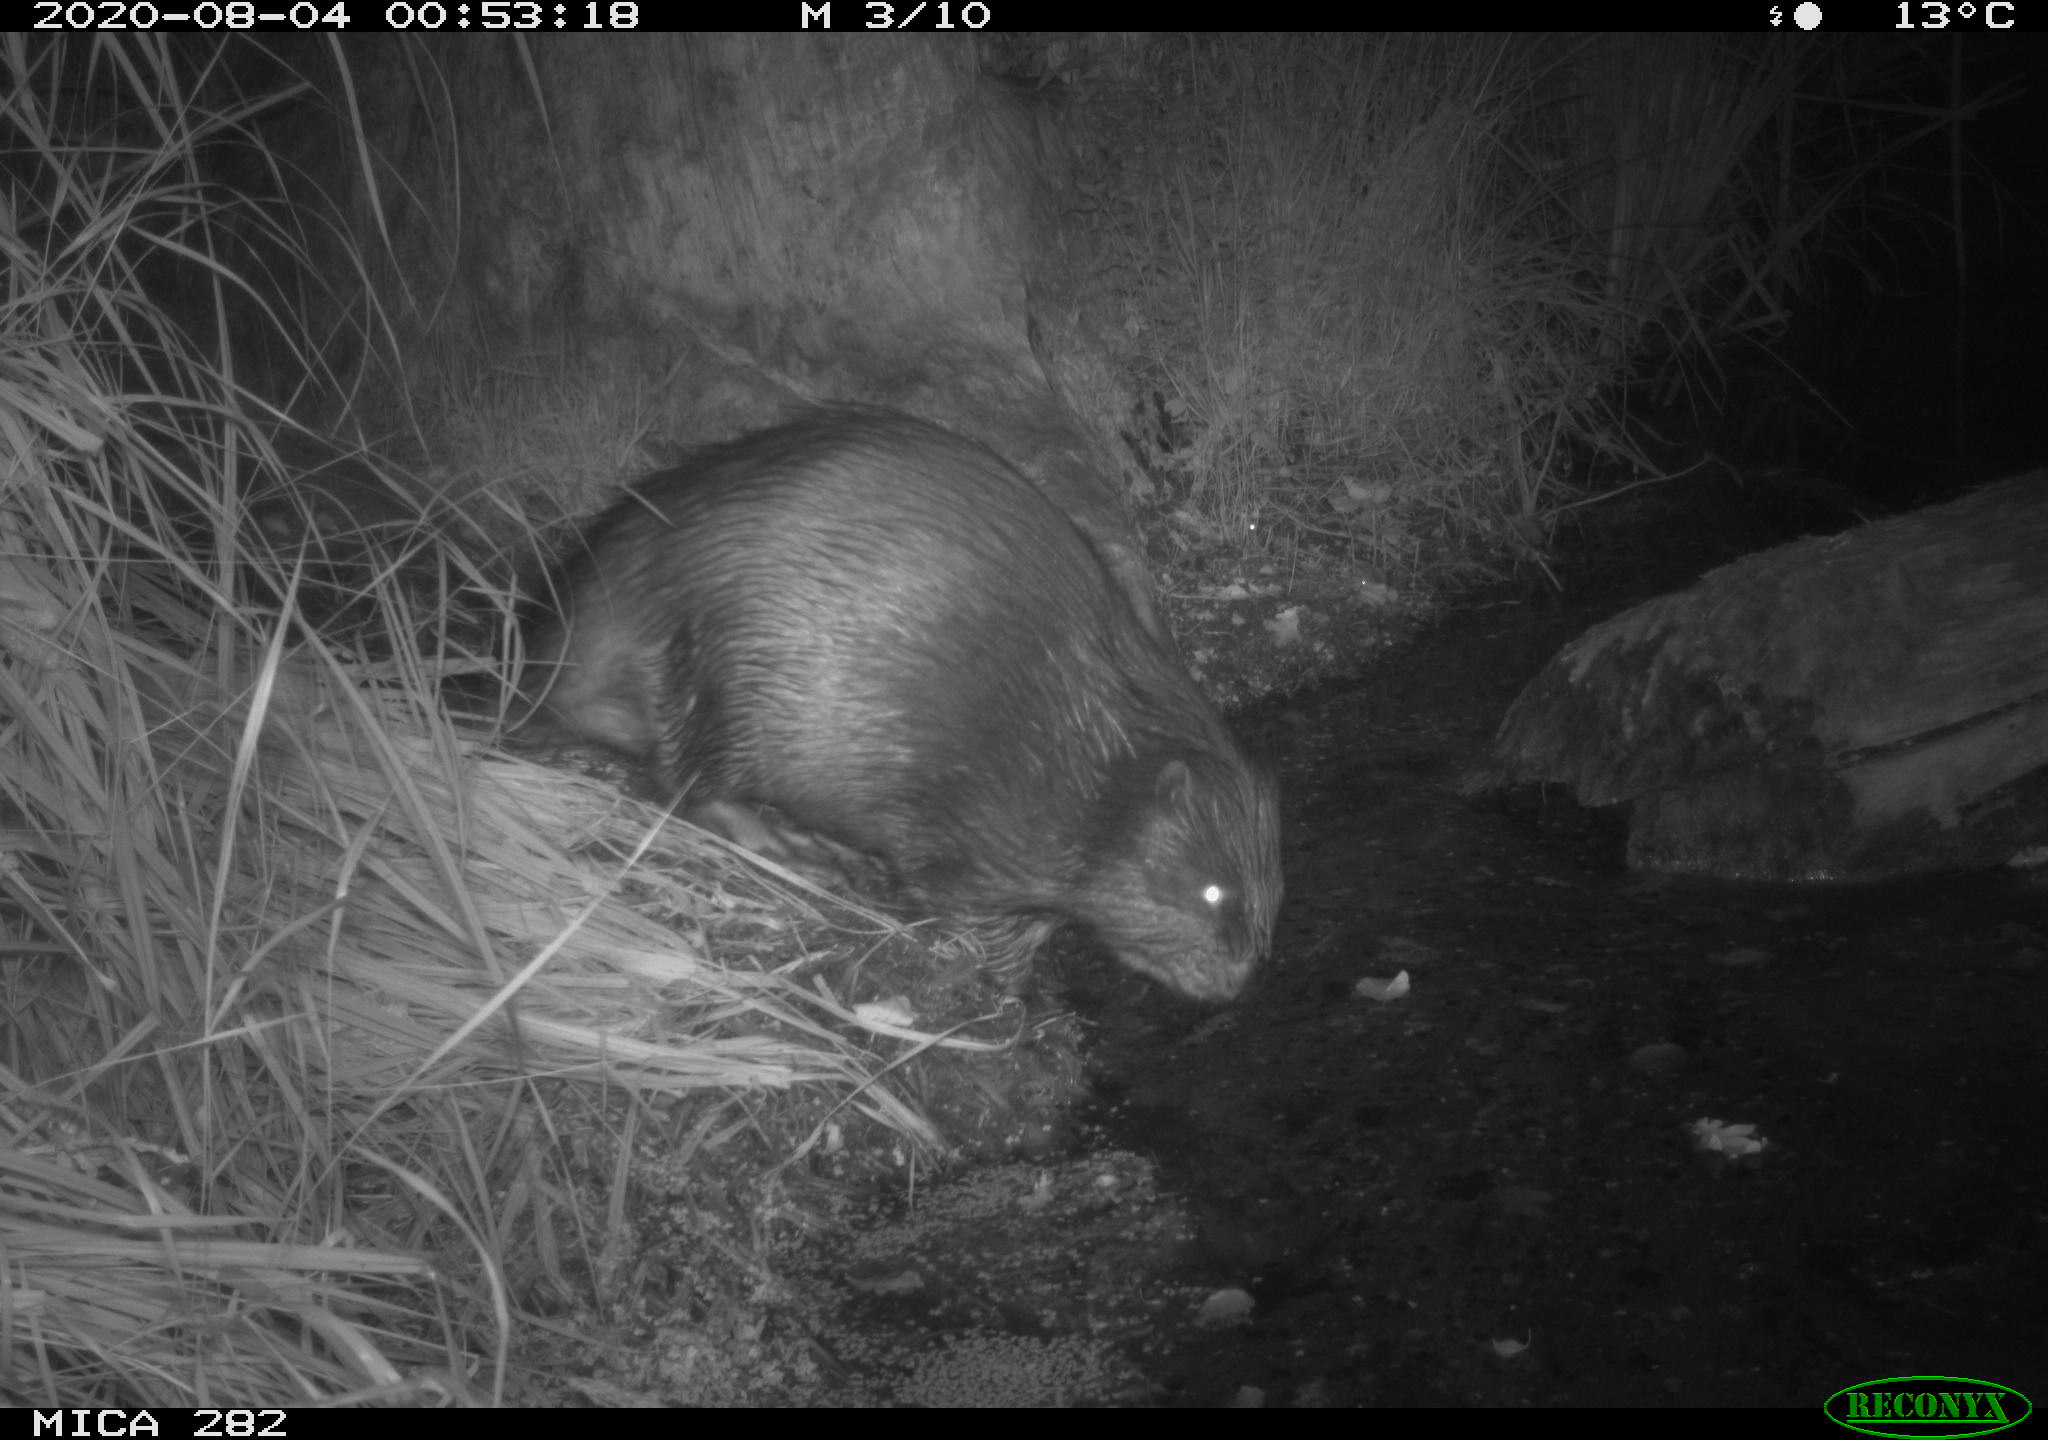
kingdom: Animalia
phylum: Chordata
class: Mammalia
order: Rodentia
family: Castoridae
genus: Castor
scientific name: Castor fiber
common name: Eurasian beaver
